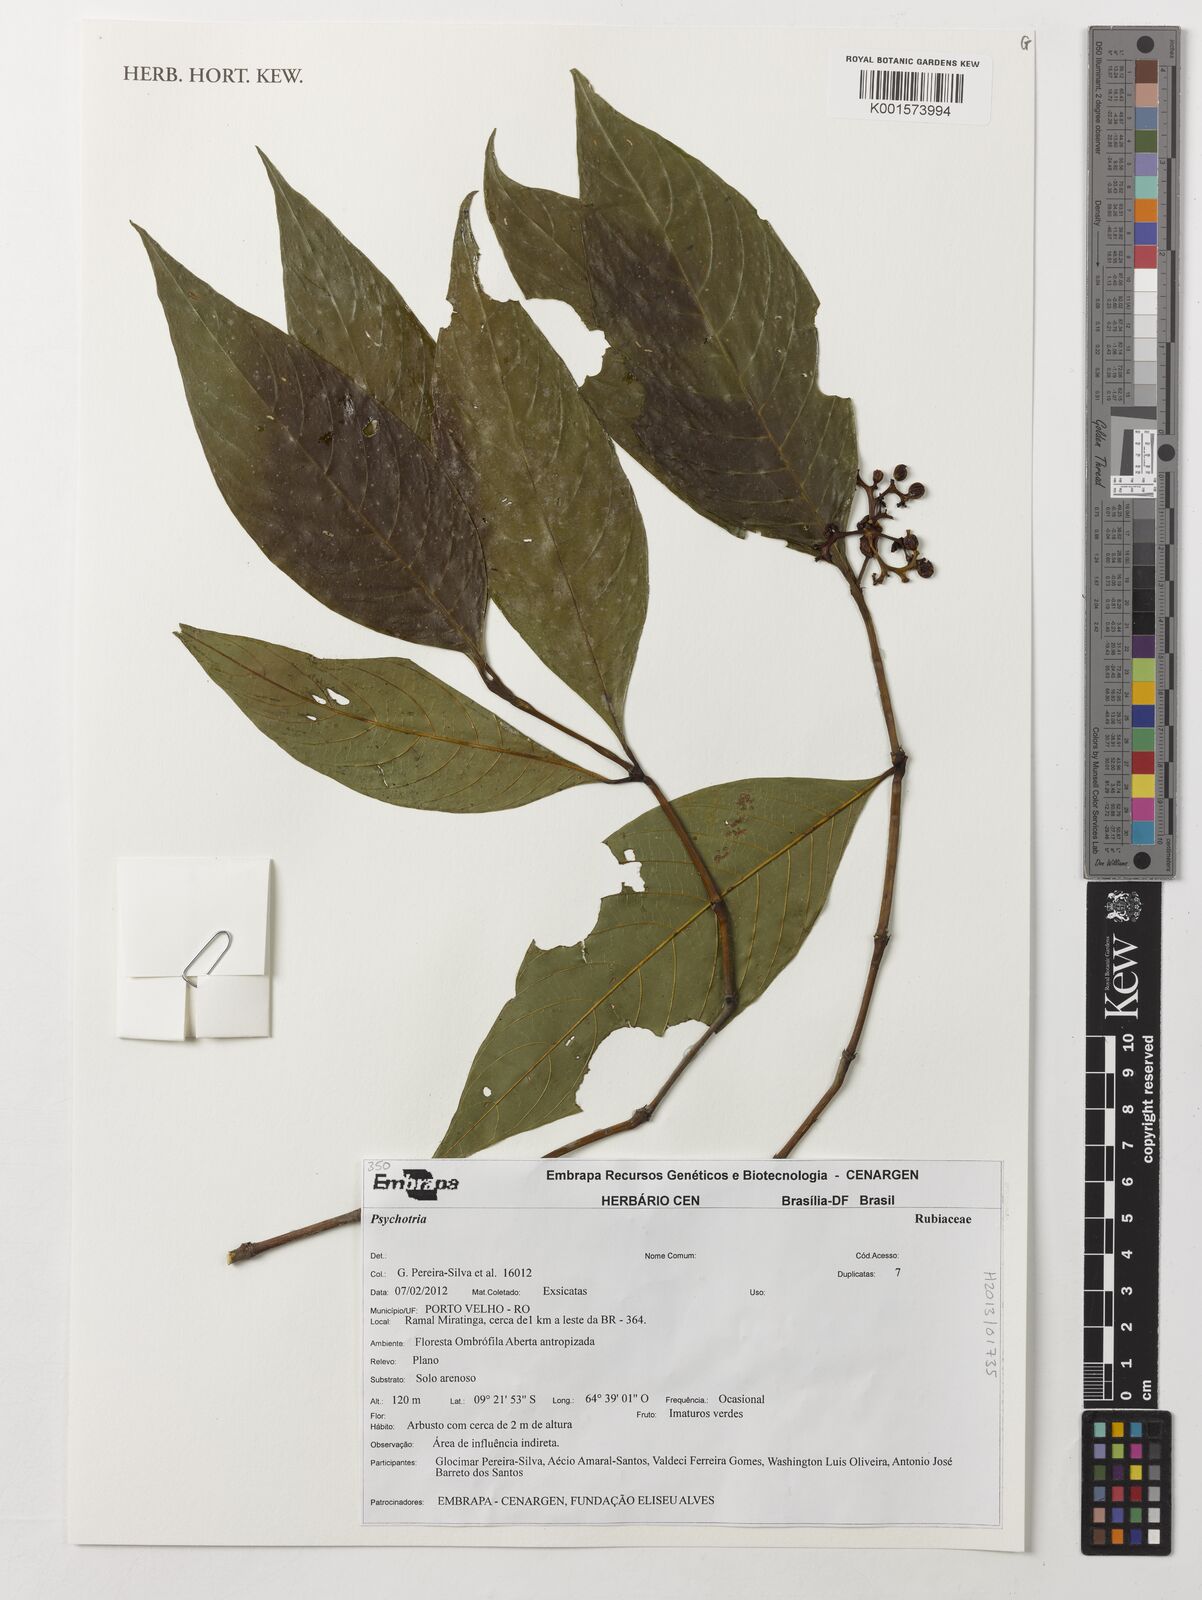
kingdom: Plantae
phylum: Tracheophyta
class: Magnoliopsida
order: Gentianales
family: Rubiaceae
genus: Psychotria
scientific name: Psychotria
